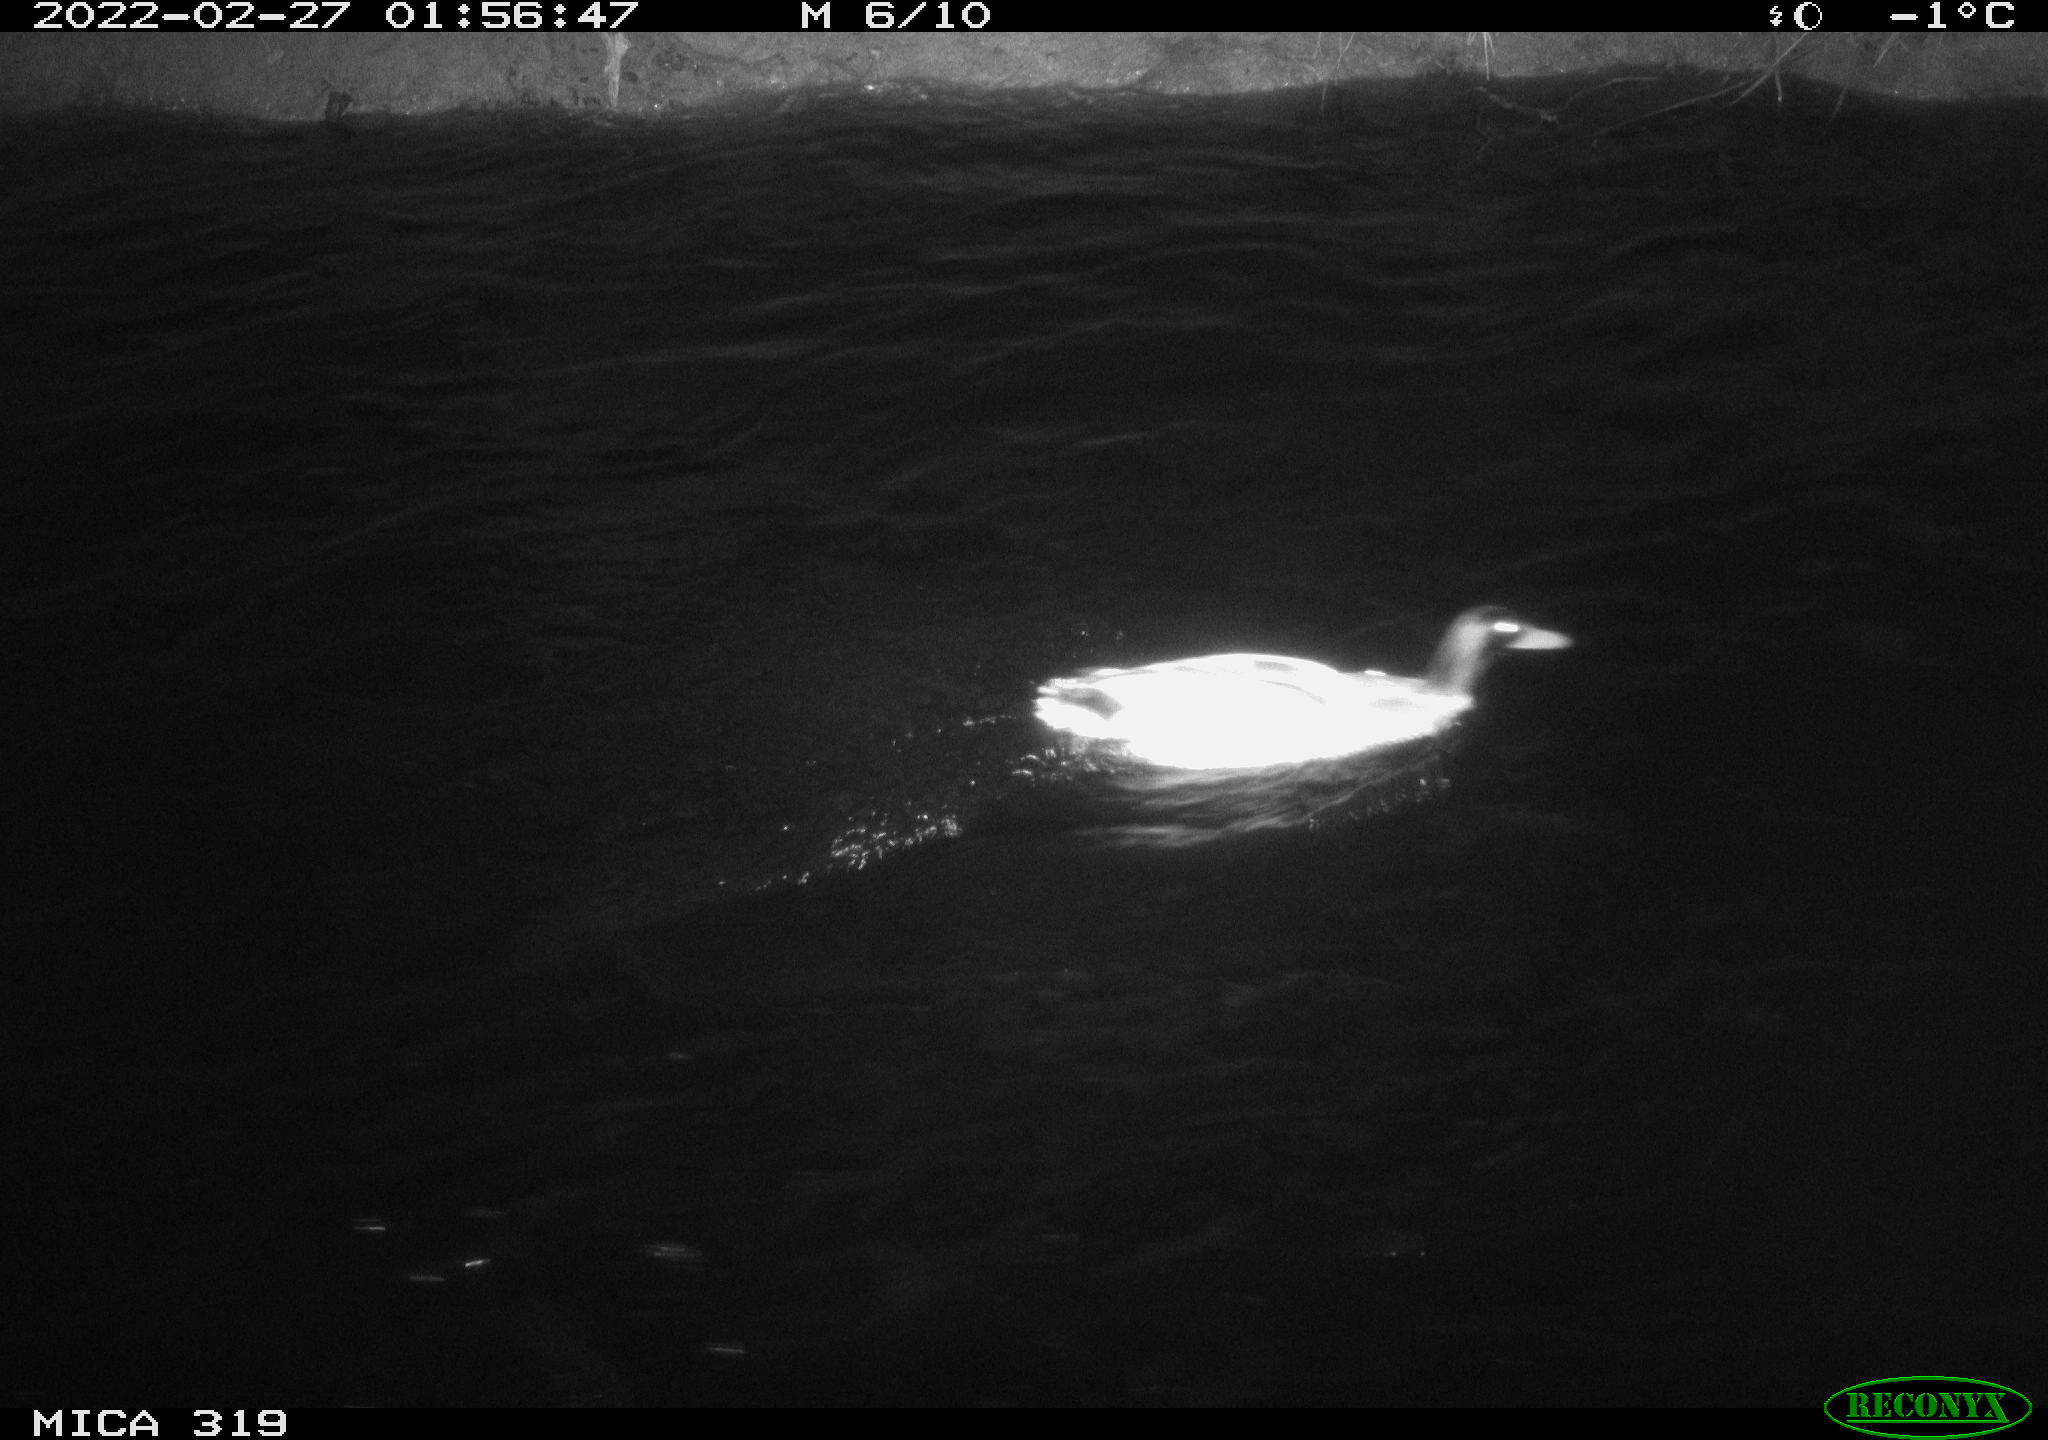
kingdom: Animalia
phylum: Chordata
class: Aves
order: Anseriformes
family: Anatidae
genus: Anas
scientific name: Anas platyrhynchos
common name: Mallard
